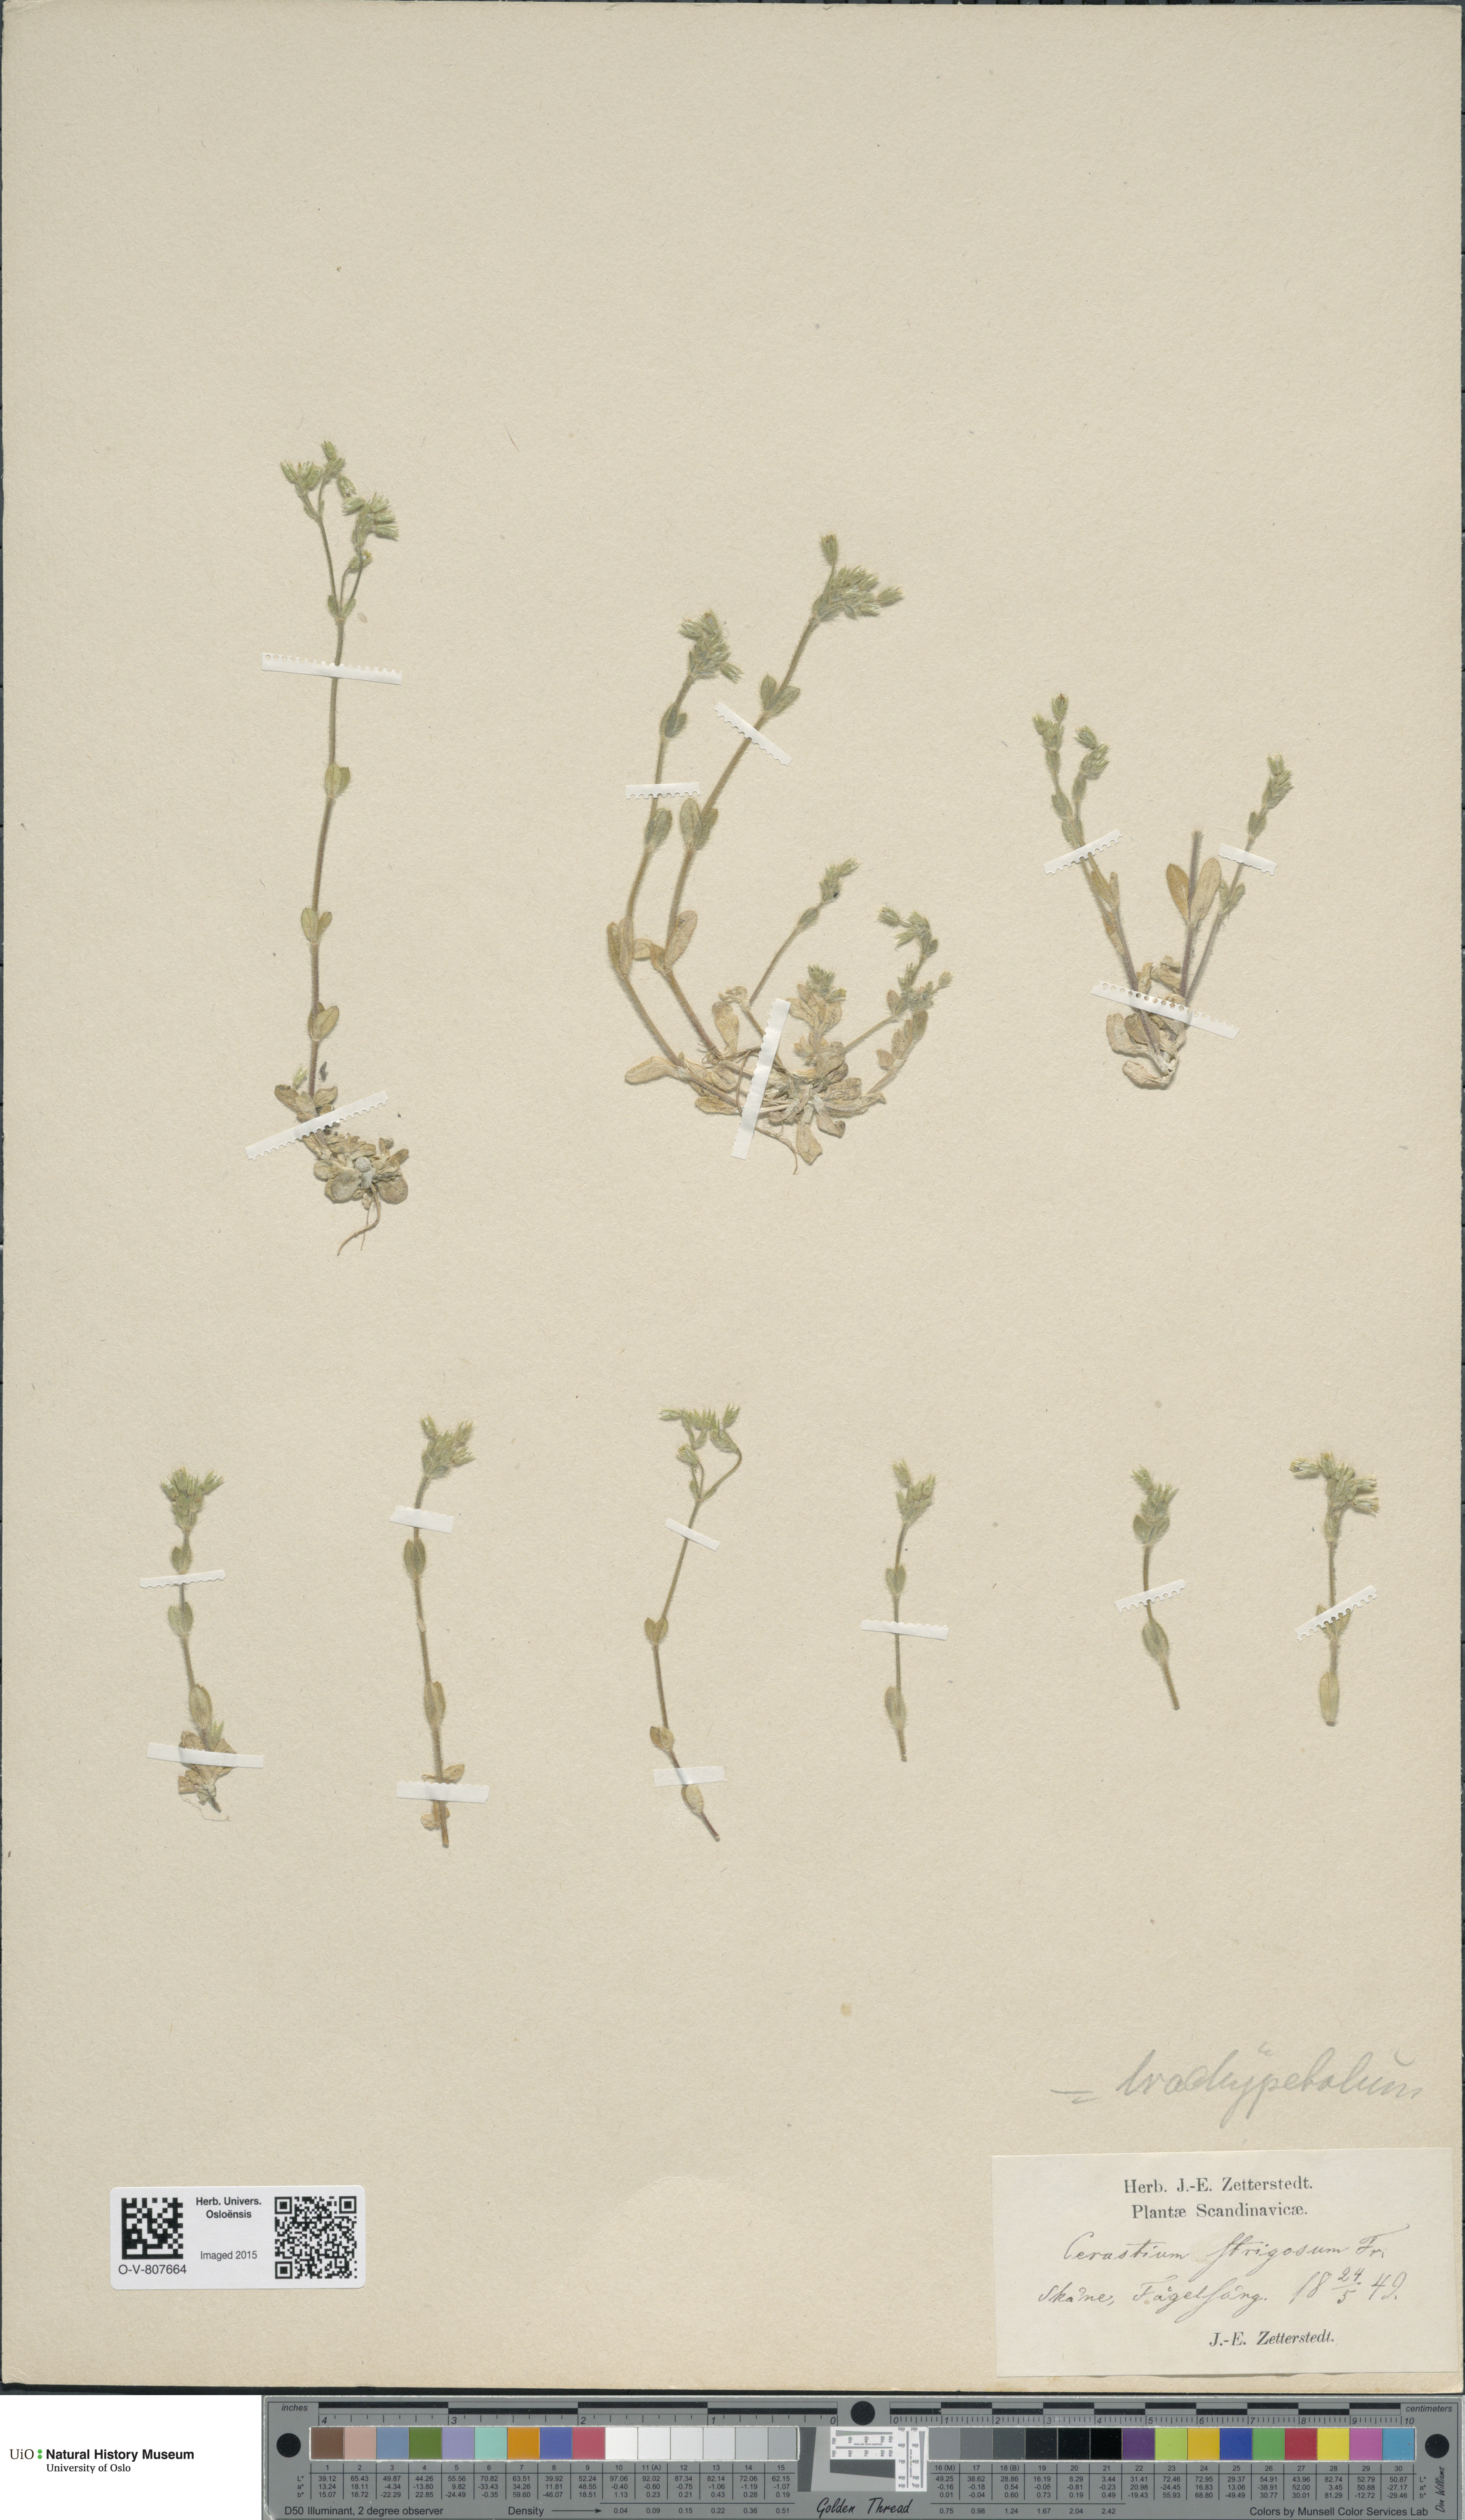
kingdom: Plantae
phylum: Tracheophyta
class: Magnoliopsida
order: Caryophyllales
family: Caryophyllaceae
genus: Cerastium
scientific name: Cerastium brachypetalum
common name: Grey mouse-ear
